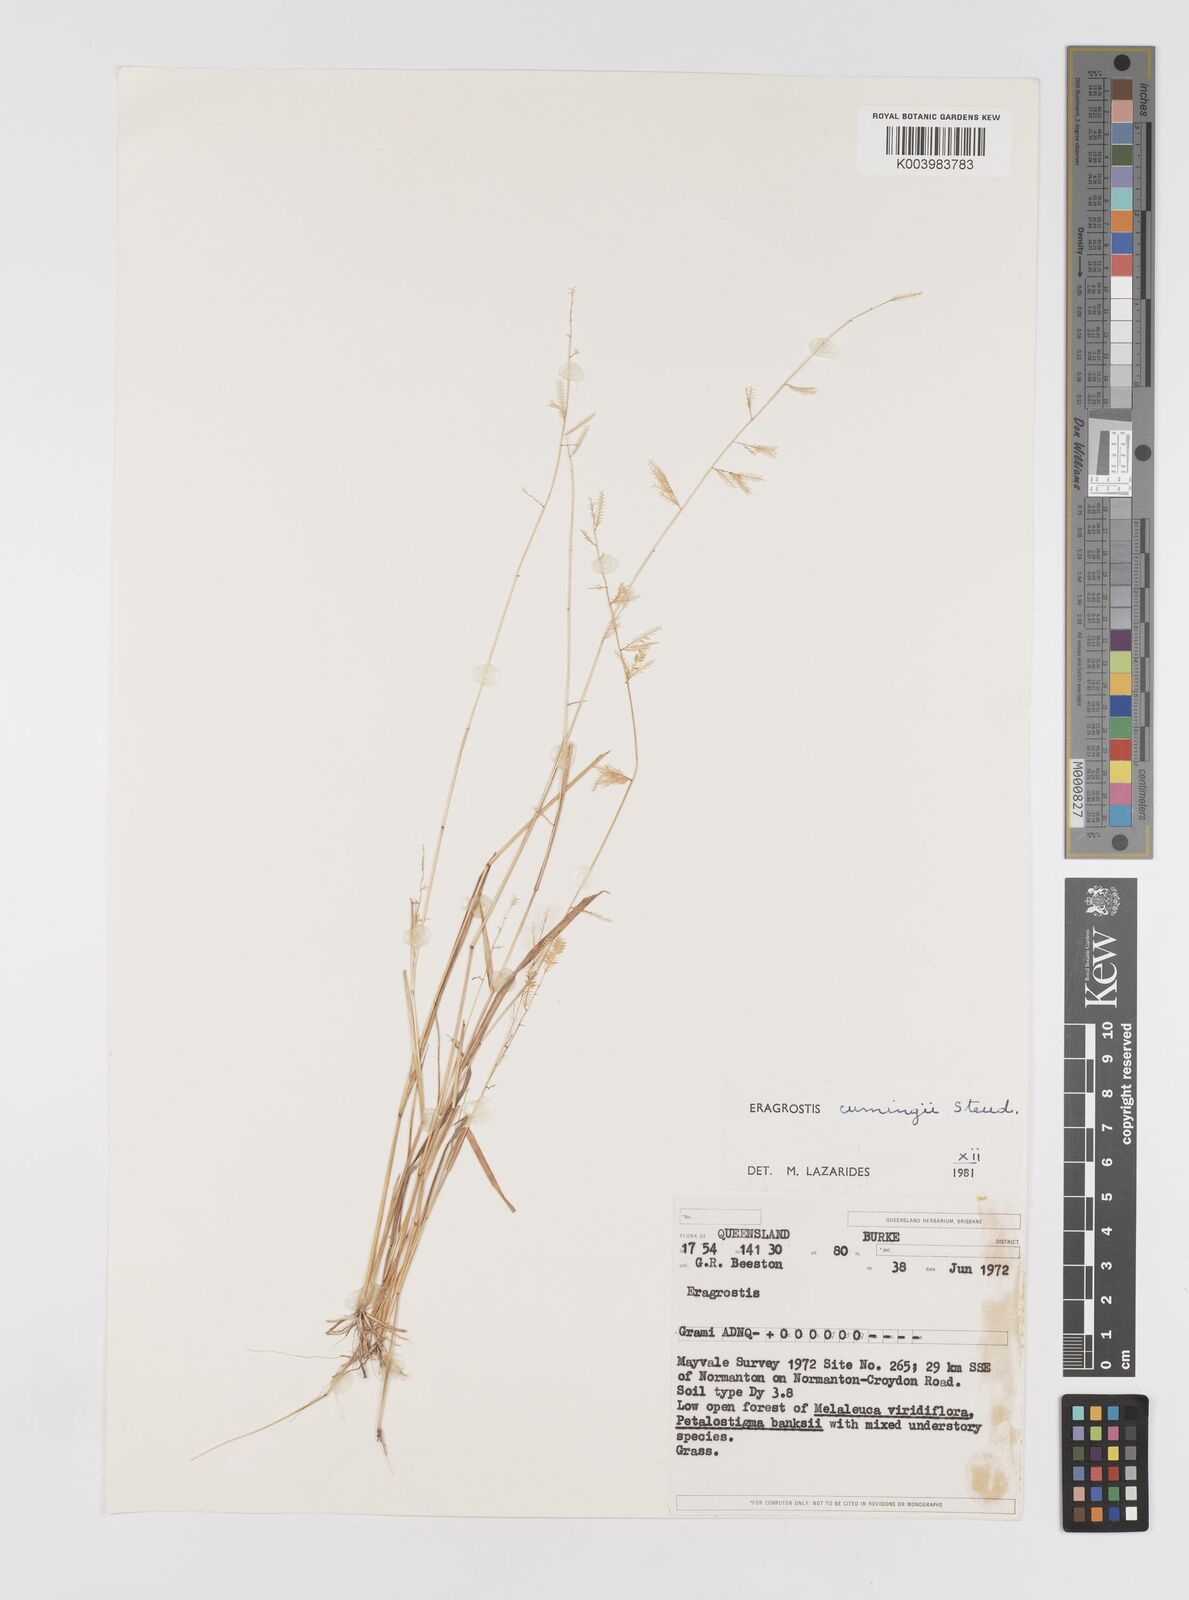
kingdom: Plantae
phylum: Tracheophyta
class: Liliopsida
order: Poales
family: Poaceae
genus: Eragrostis
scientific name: Eragrostis cumingii
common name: Cuming's lovegrass
